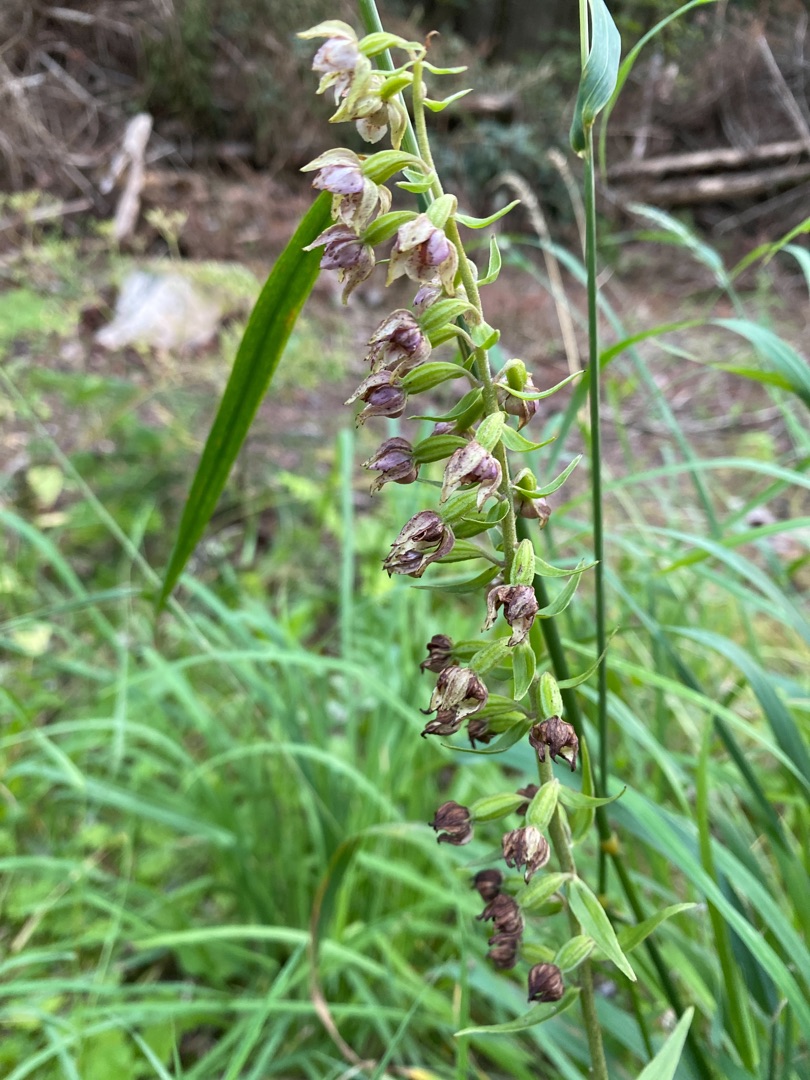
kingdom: Plantae
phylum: Tracheophyta
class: Liliopsida
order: Asparagales
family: Orchidaceae
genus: Epipactis
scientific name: Epipactis helleborine
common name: Skov-hullæbe
